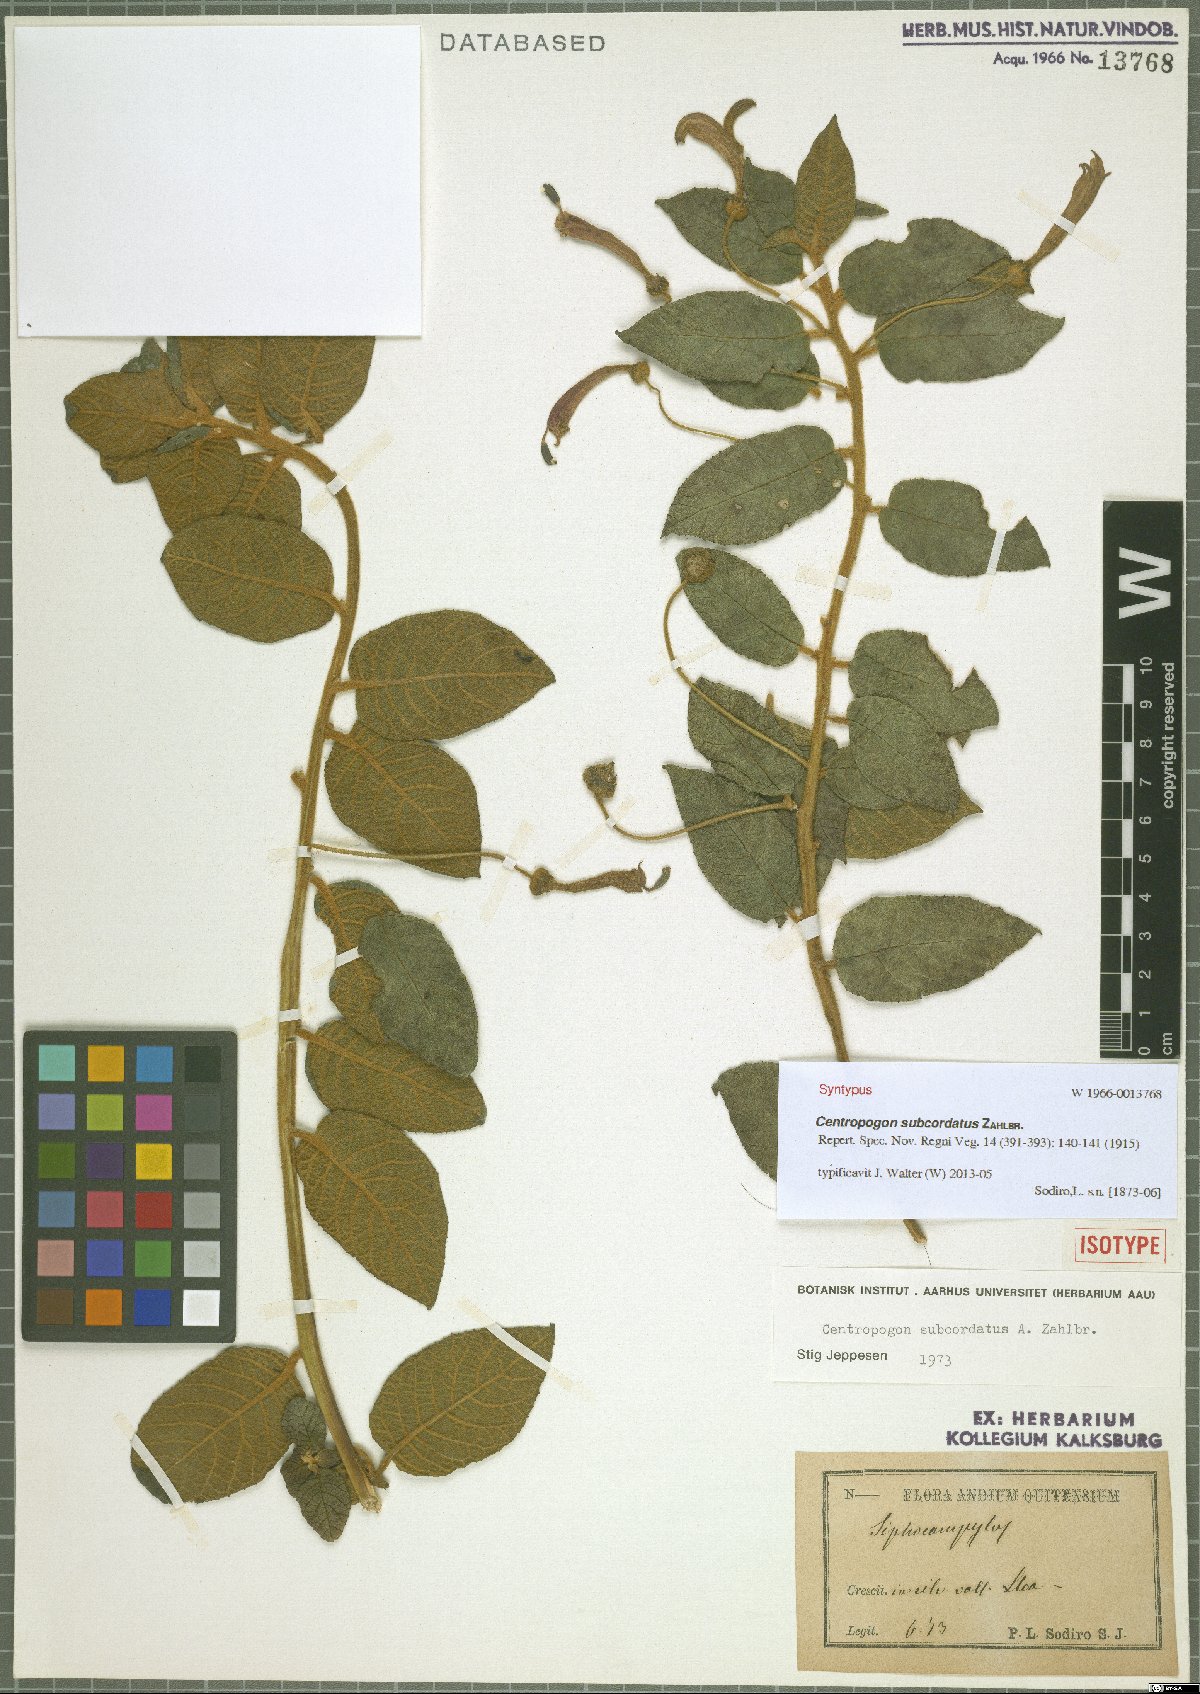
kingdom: Plantae
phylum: Tracheophyta
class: Magnoliopsida
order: Asterales
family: Campanulaceae
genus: Centropogon
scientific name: Centropogon subcordatus
